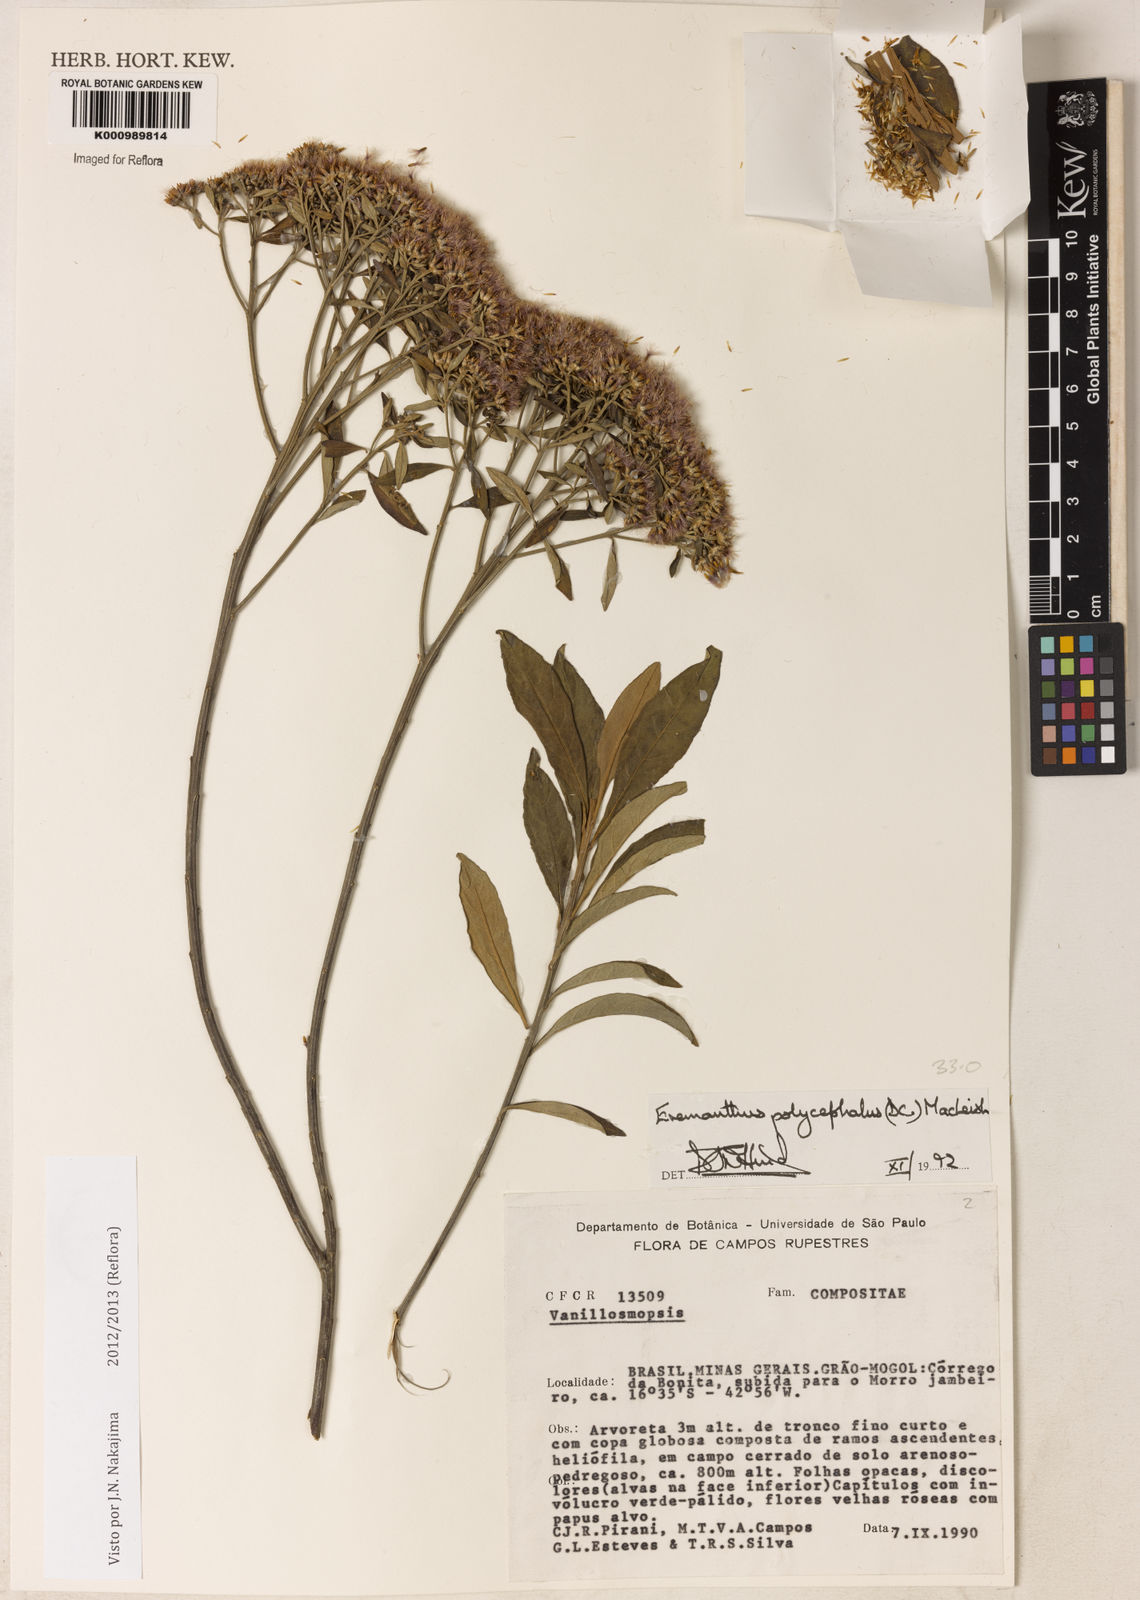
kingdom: Plantae
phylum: Tracheophyta
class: Magnoliopsida
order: Asterales
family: Asteraceae
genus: Eremanthus
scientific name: Eremanthus polycephalus
